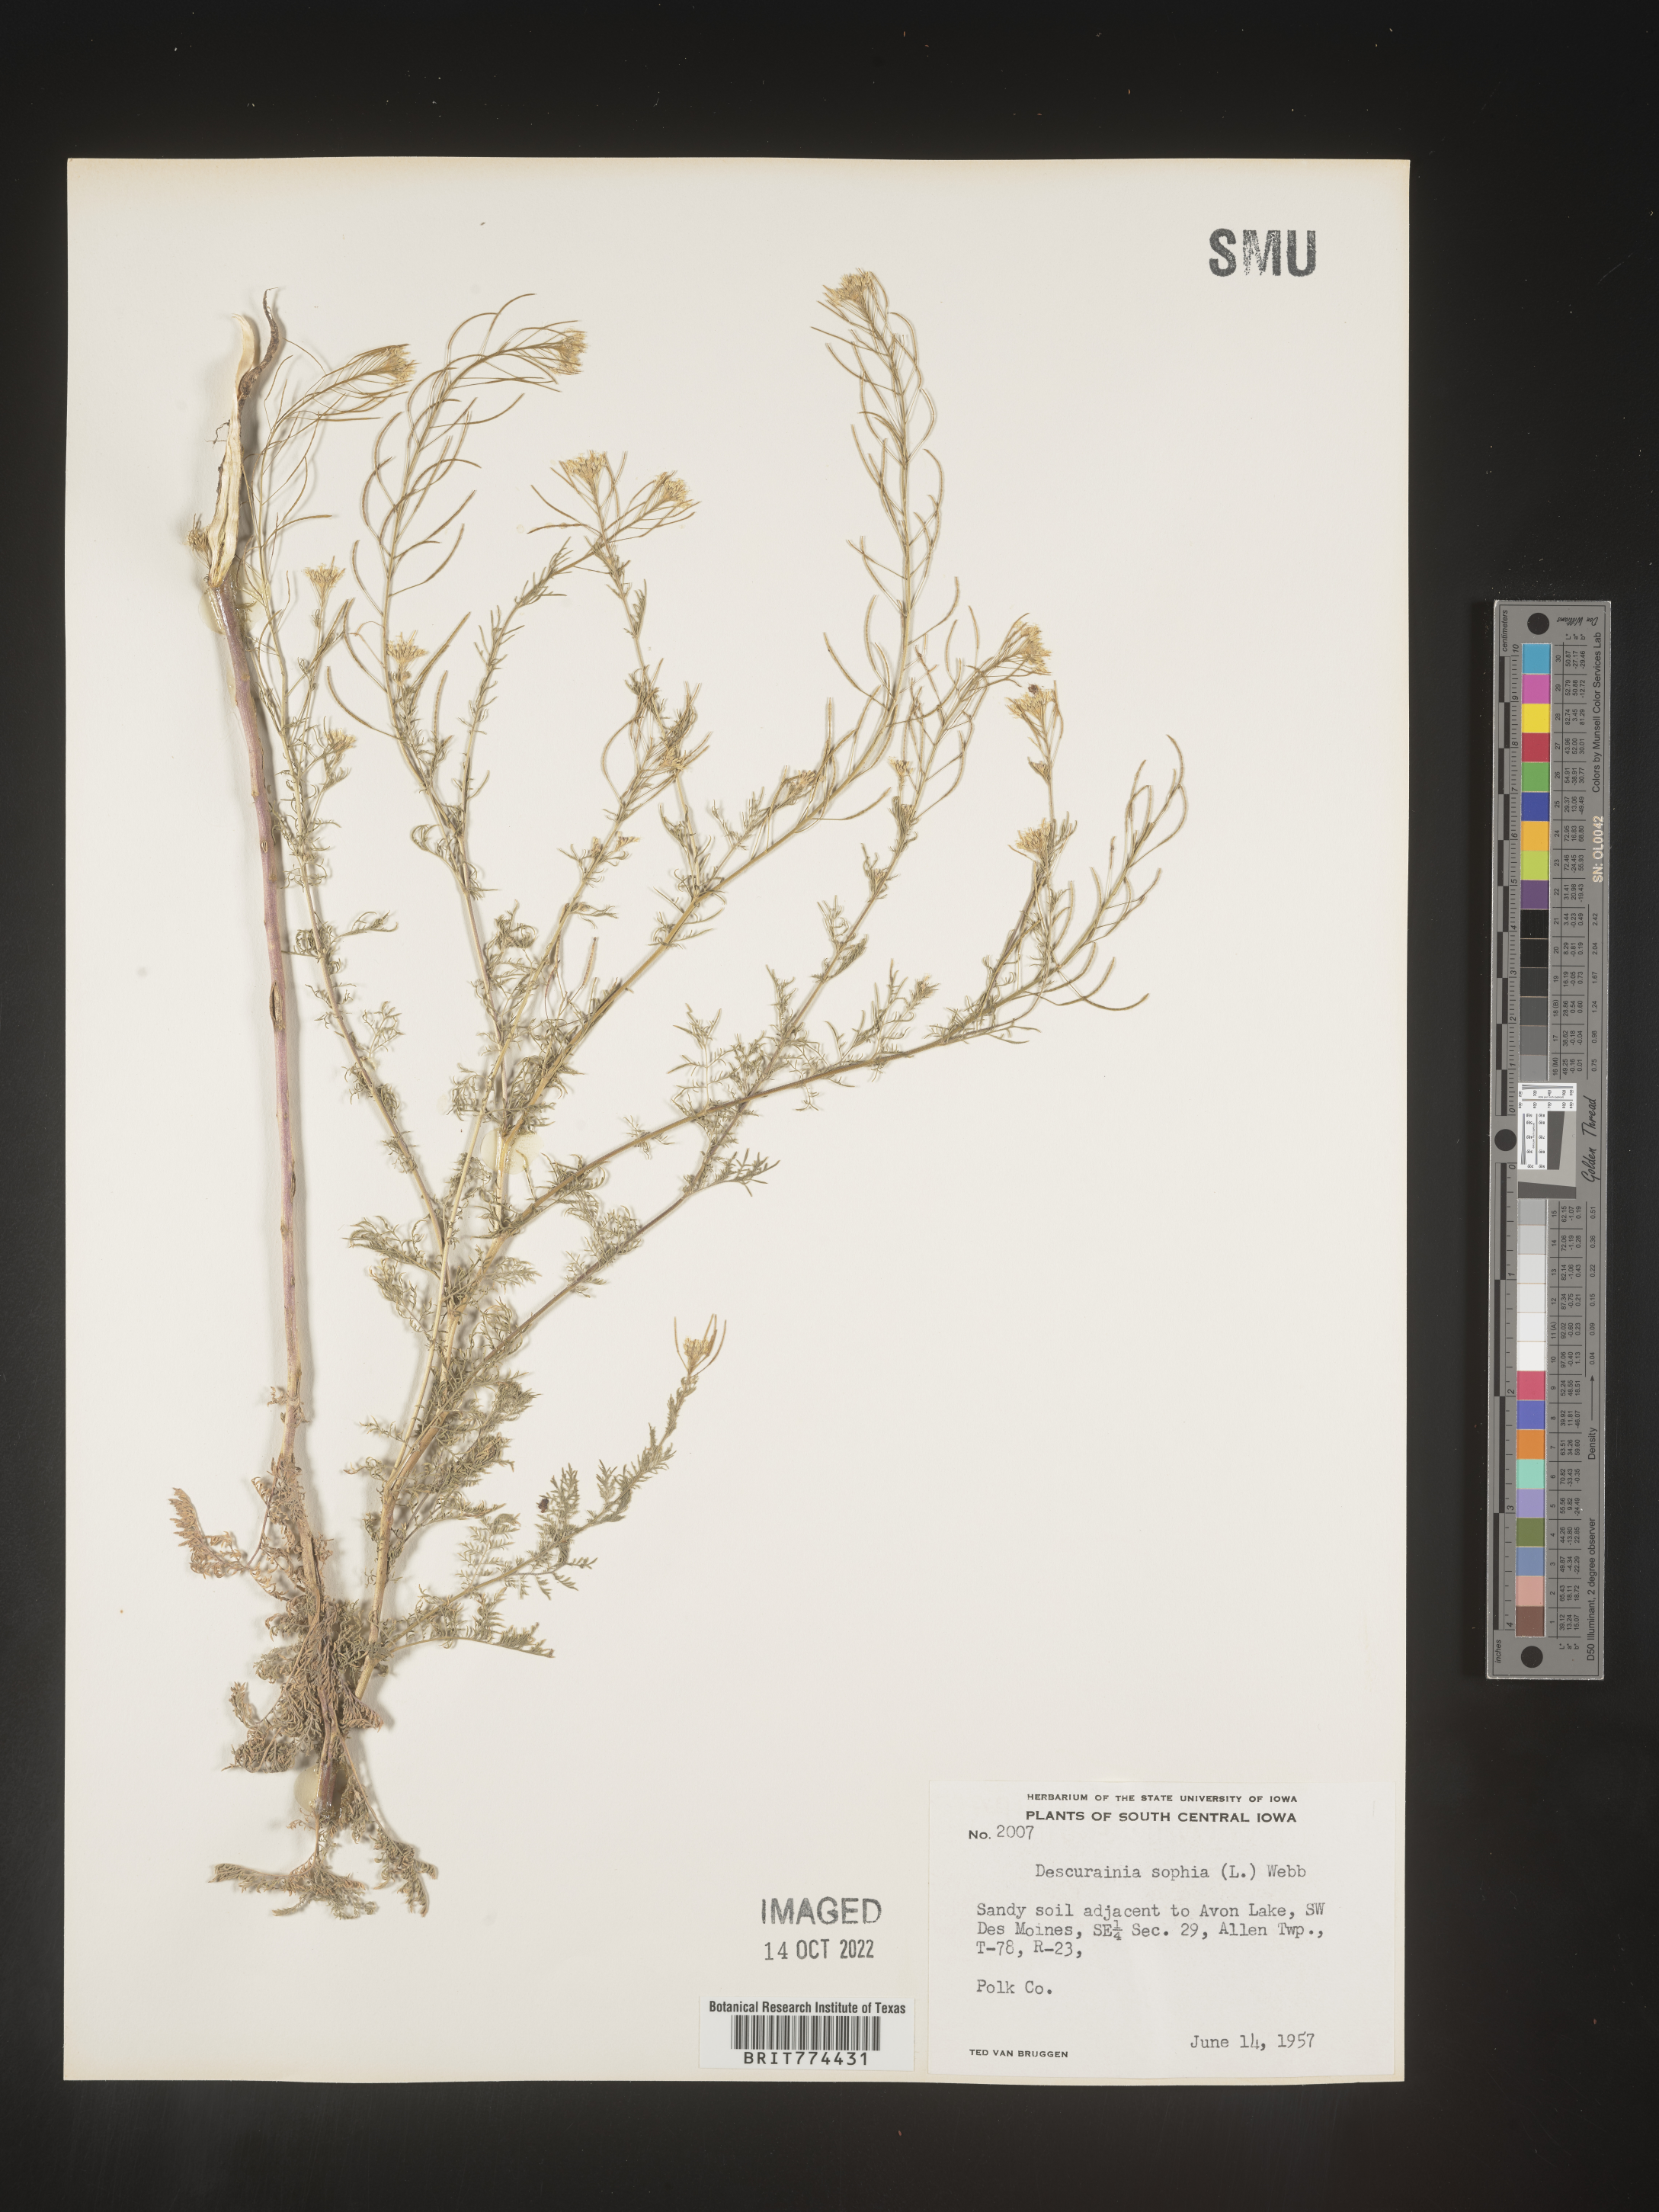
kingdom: Plantae
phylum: Tracheophyta
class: Magnoliopsida
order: Brassicales
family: Brassicaceae
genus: Descurainia
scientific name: Descurainia sophia
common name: Flixweed
